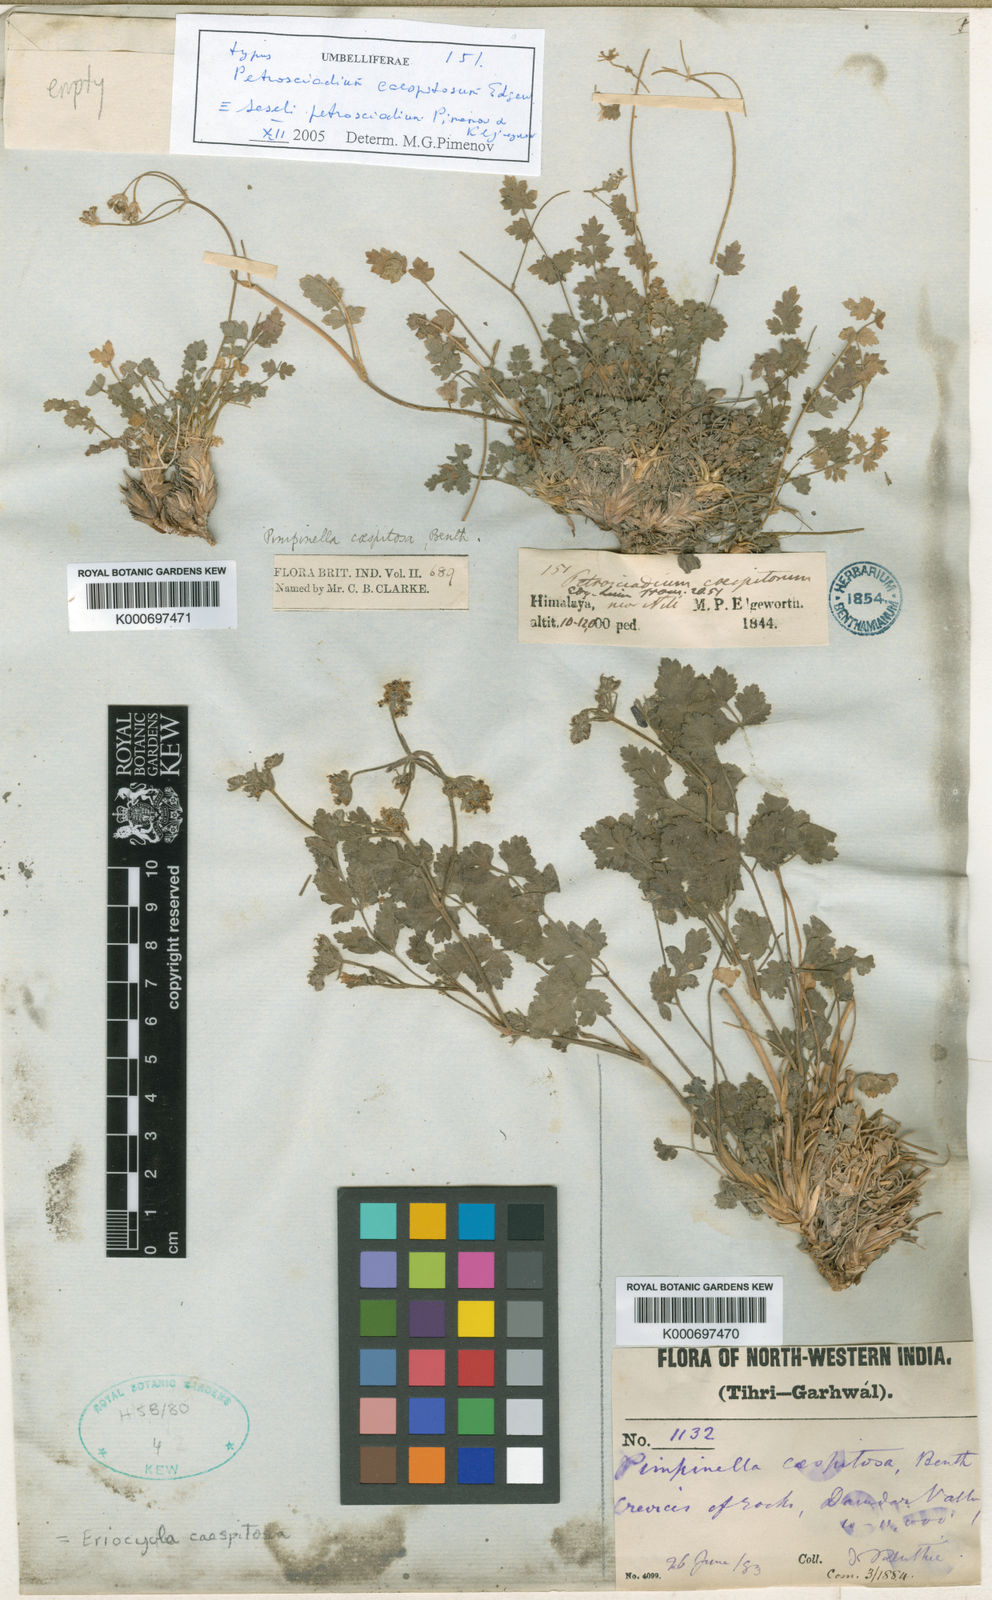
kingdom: Plantae
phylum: Tracheophyta
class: Magnoliopsida
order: Apiales
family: Apiaceae
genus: Seseli
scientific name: Seseli petrosciadium
